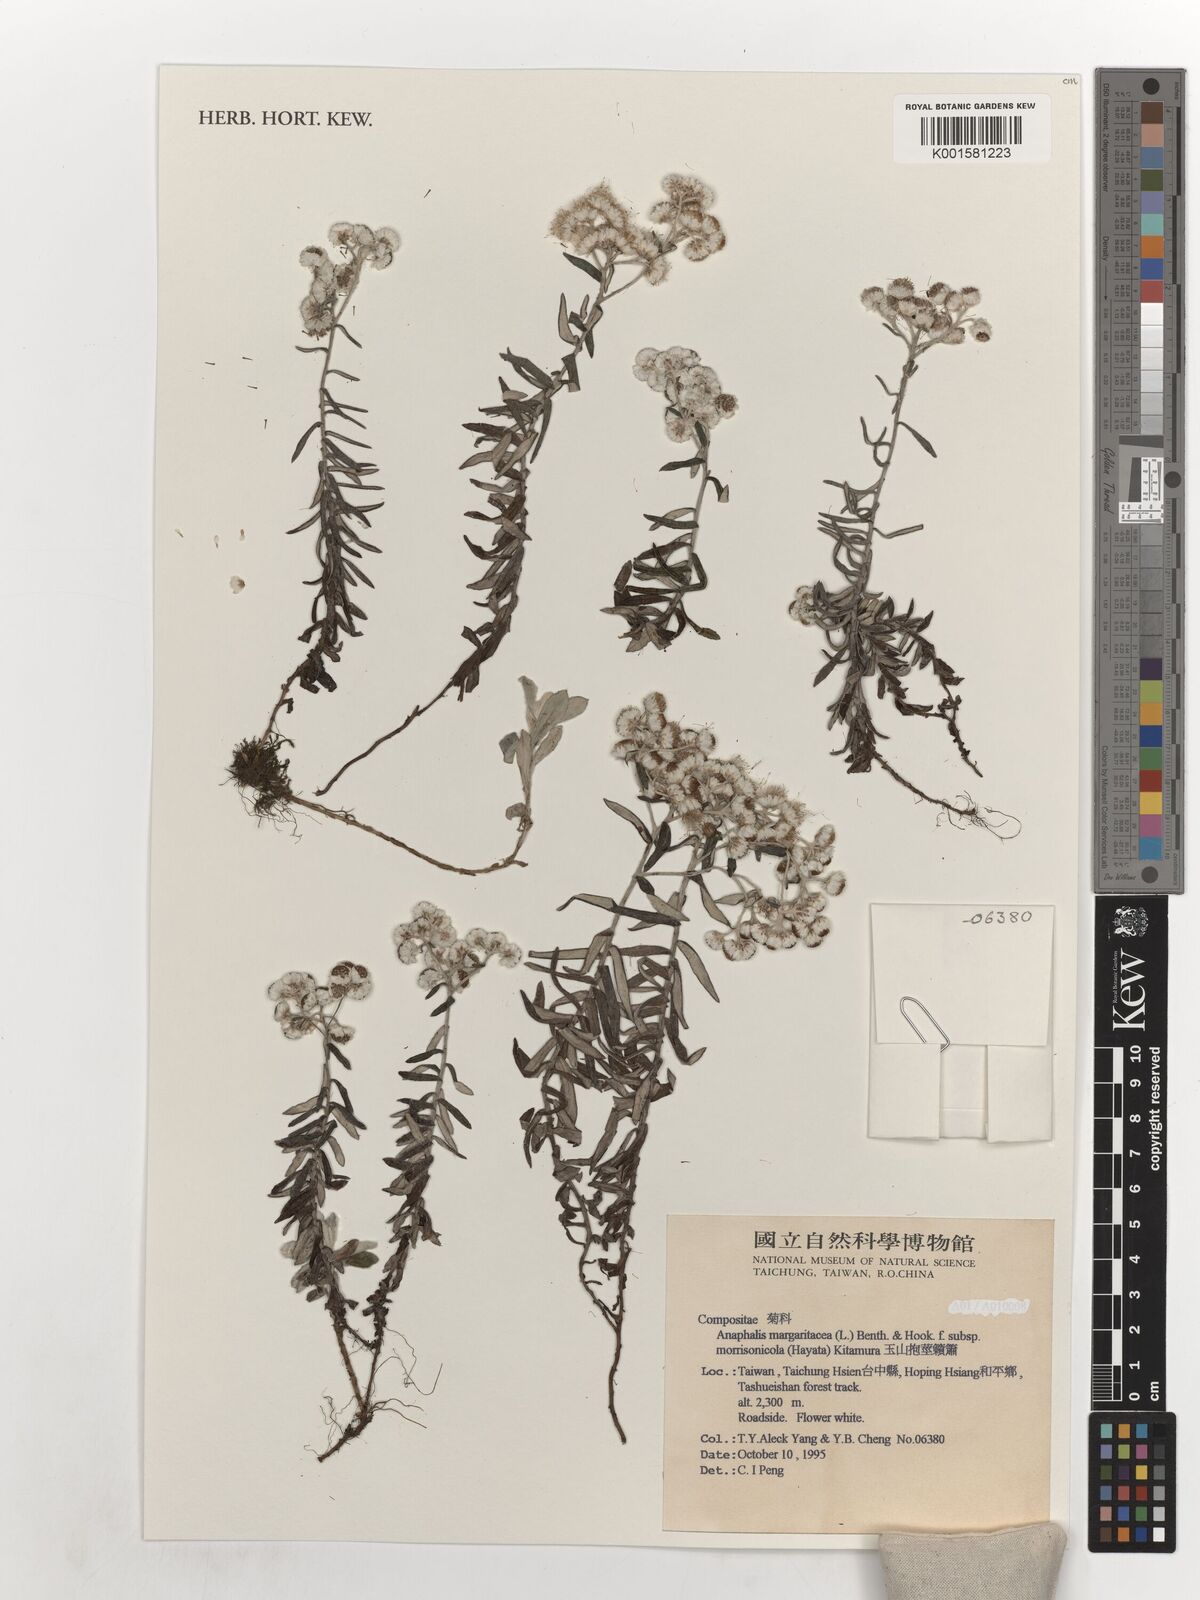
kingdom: Plantae
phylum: Tracheophyta
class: Magnoliopsida
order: Asterales
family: Asteraceae
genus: Anaphalis
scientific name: Anaphalis morrisonicola
